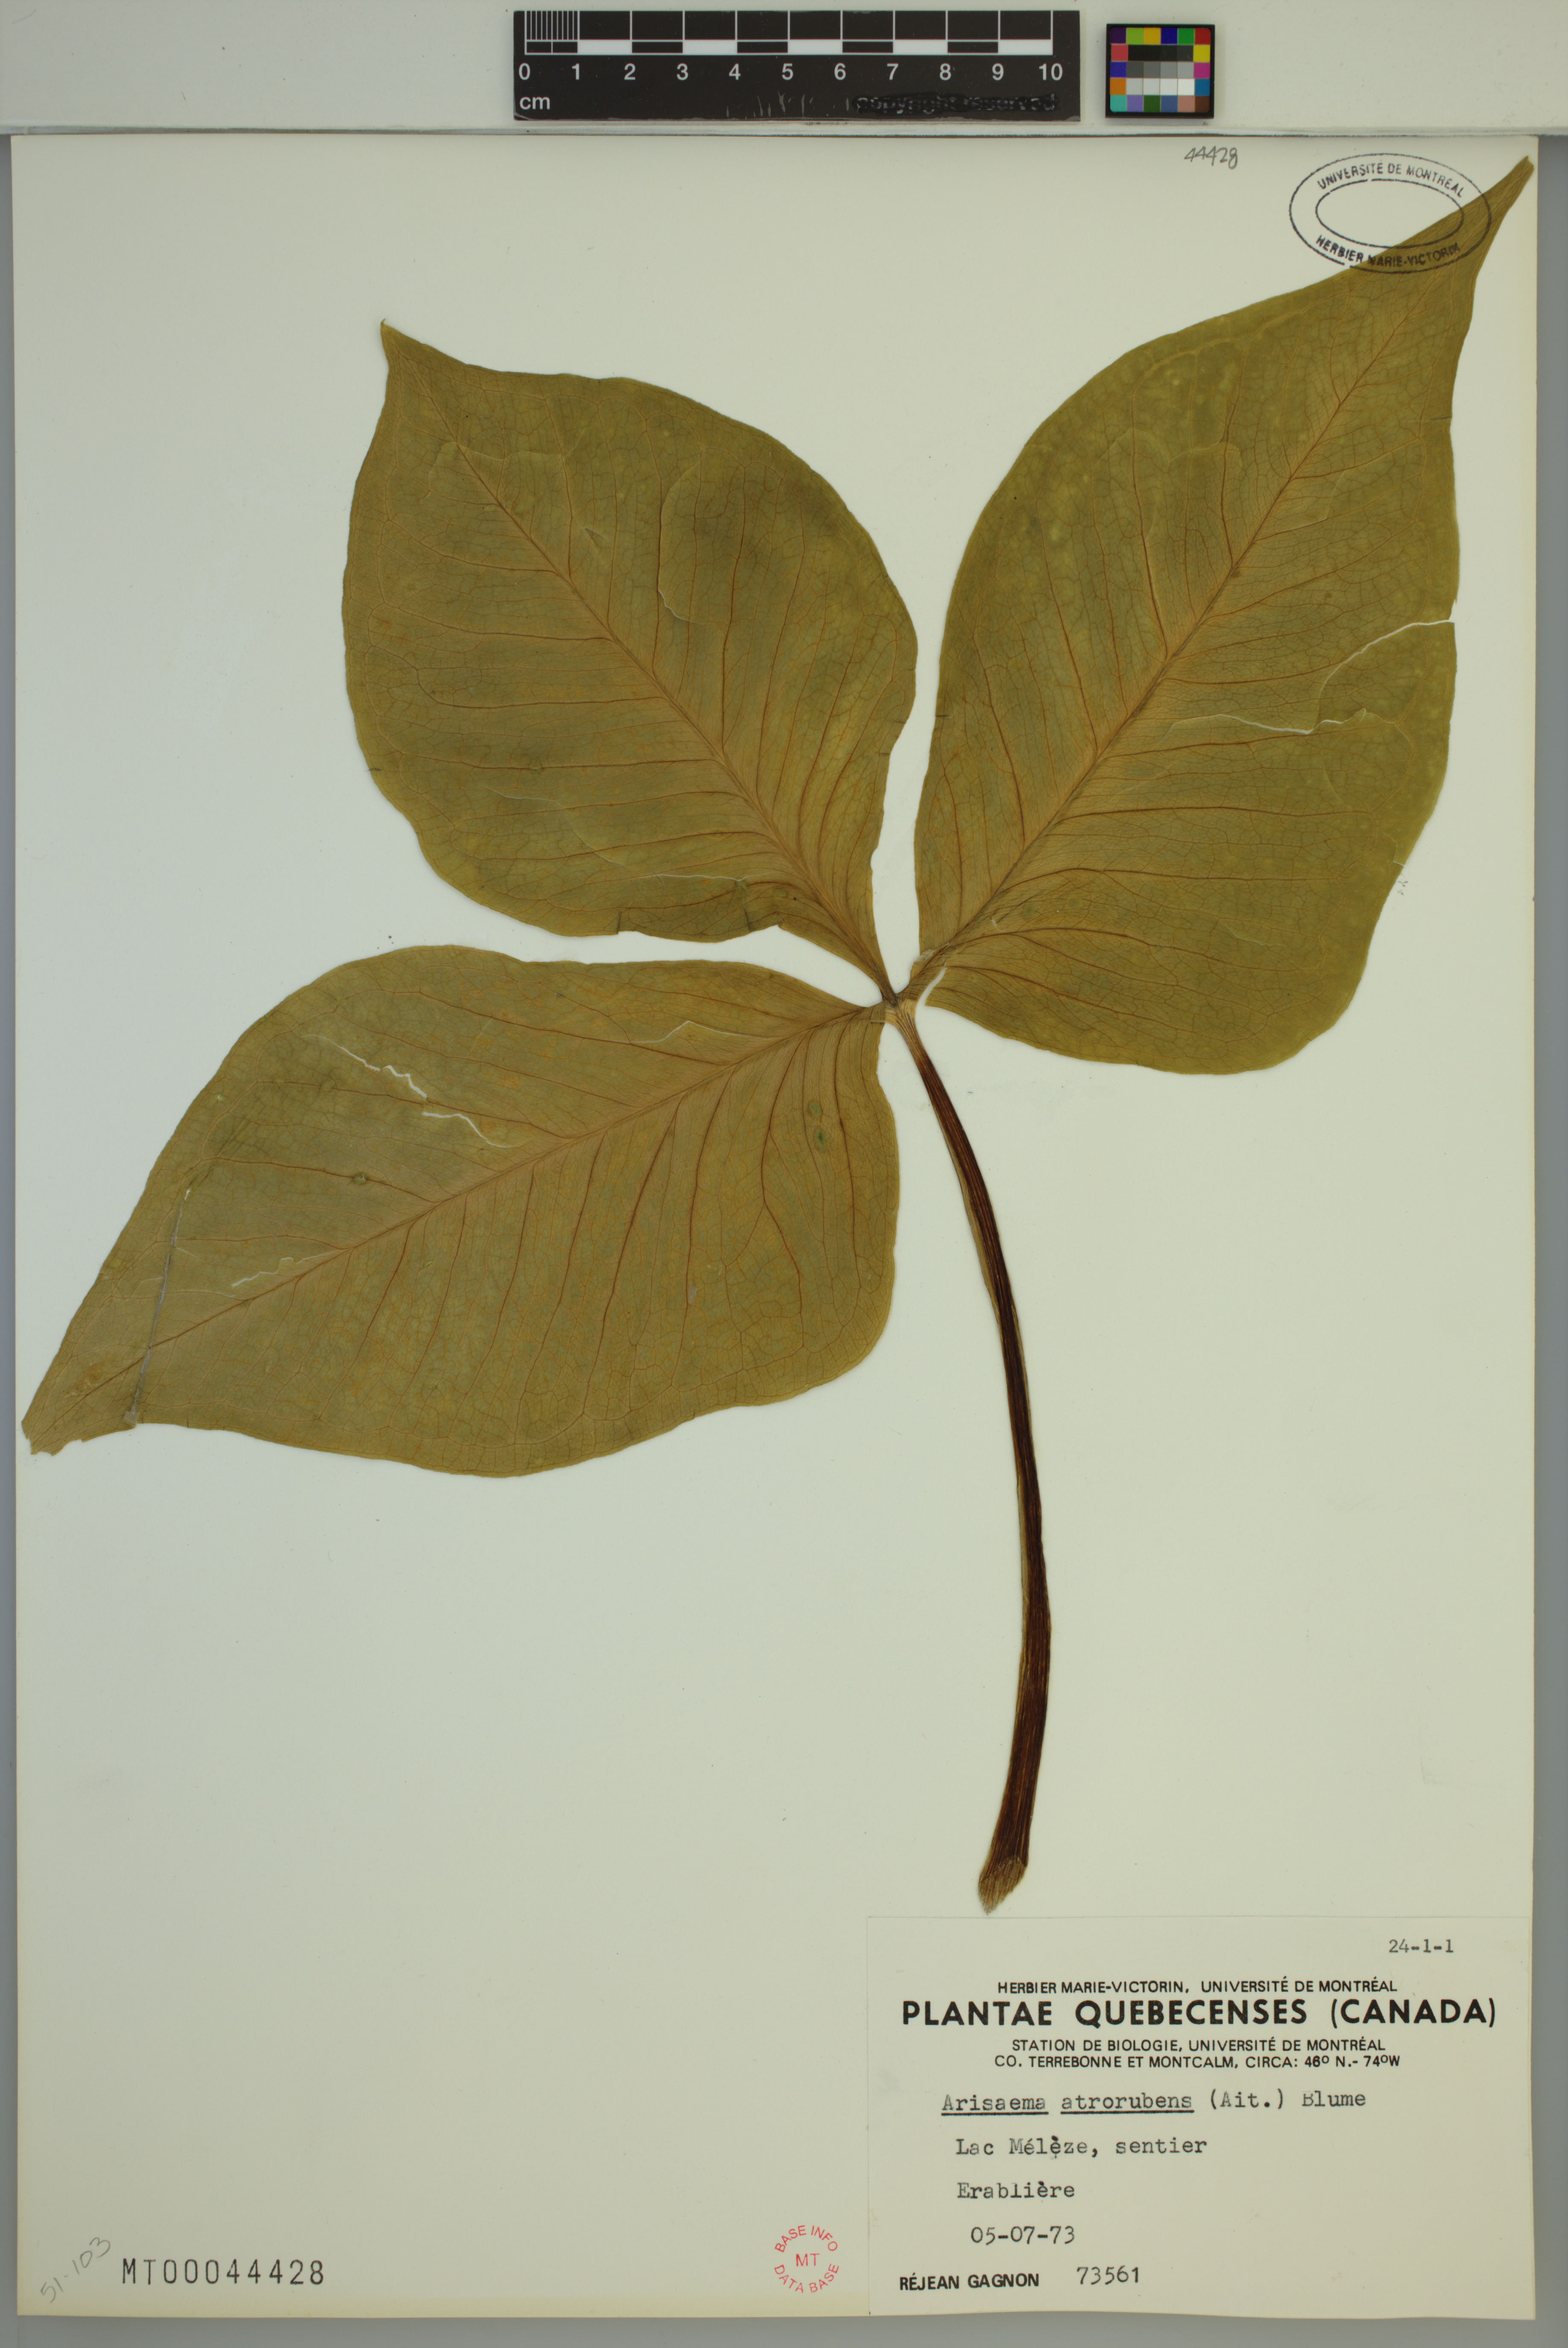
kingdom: Plantae
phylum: Tracheophyta
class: Liliopsida
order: Alismatales
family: Araceae
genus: Arisaema
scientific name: Arisaema triphyllum
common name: Jack-in-the-pulpit
